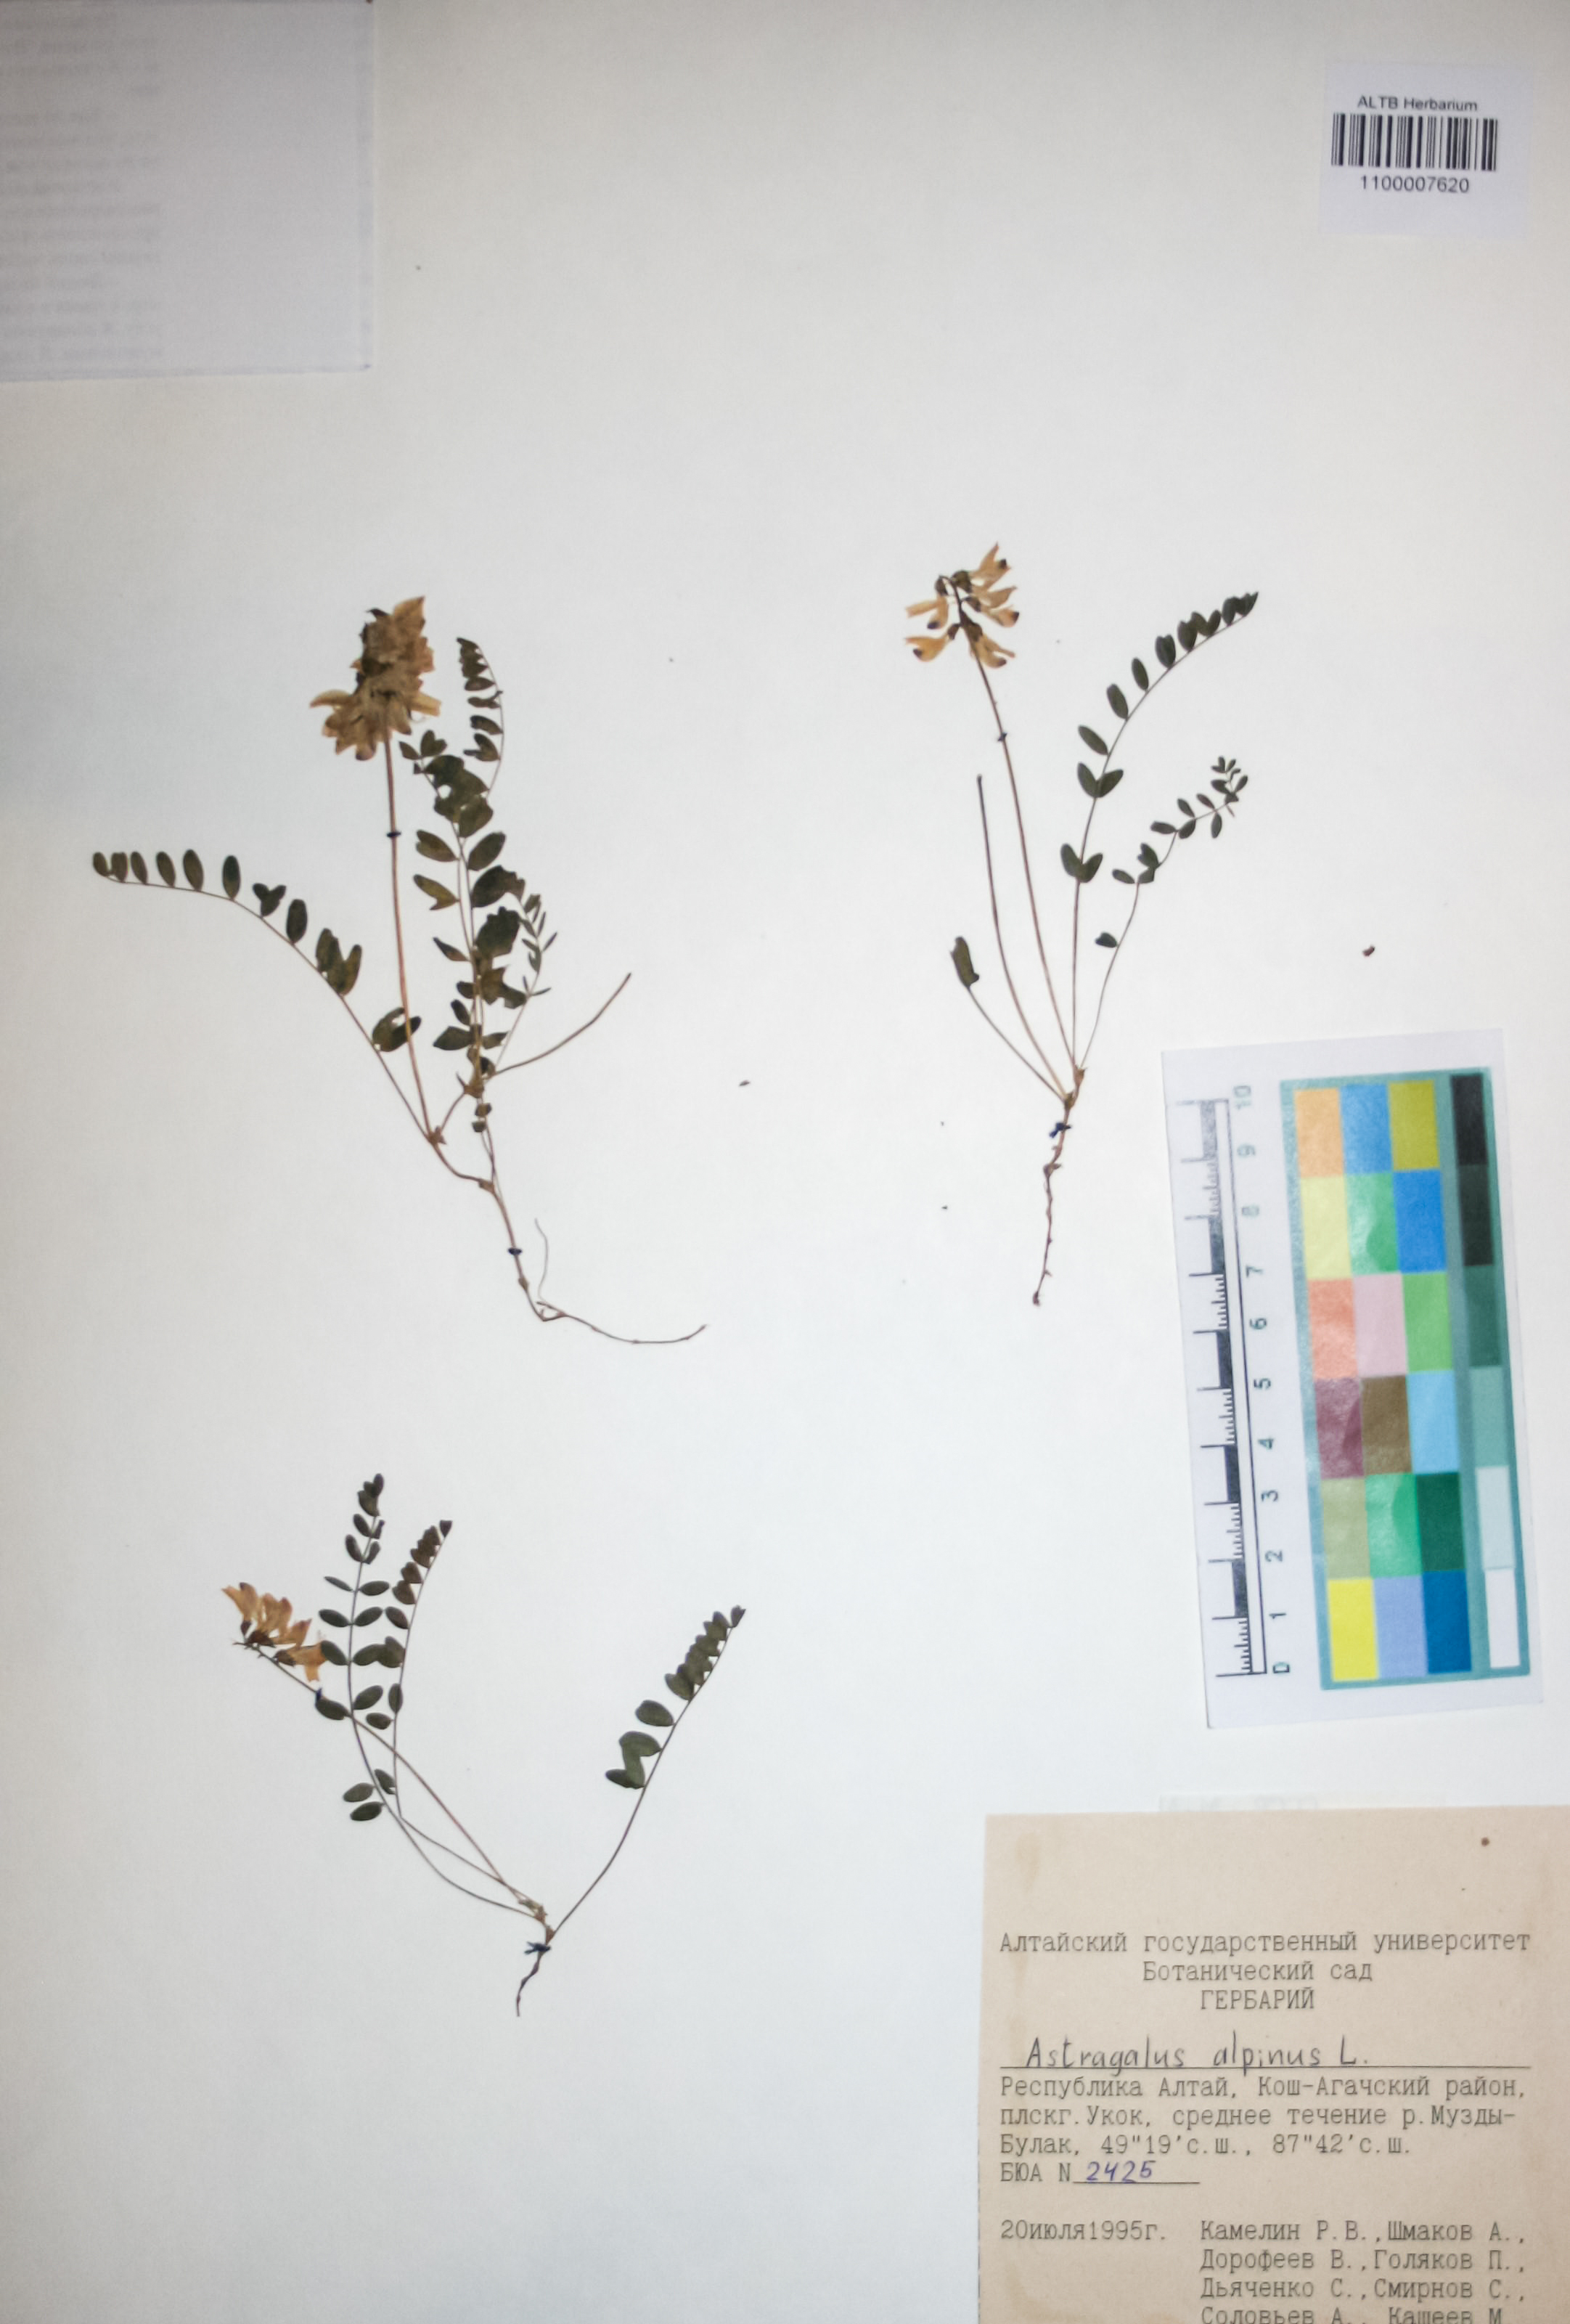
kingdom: Plantae
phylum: Tracheophyta
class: Magnoliopsida
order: Fabales
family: Fabaceae
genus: Astragalus
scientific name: Astragalus alpinus
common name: Alpine milk-vetch
